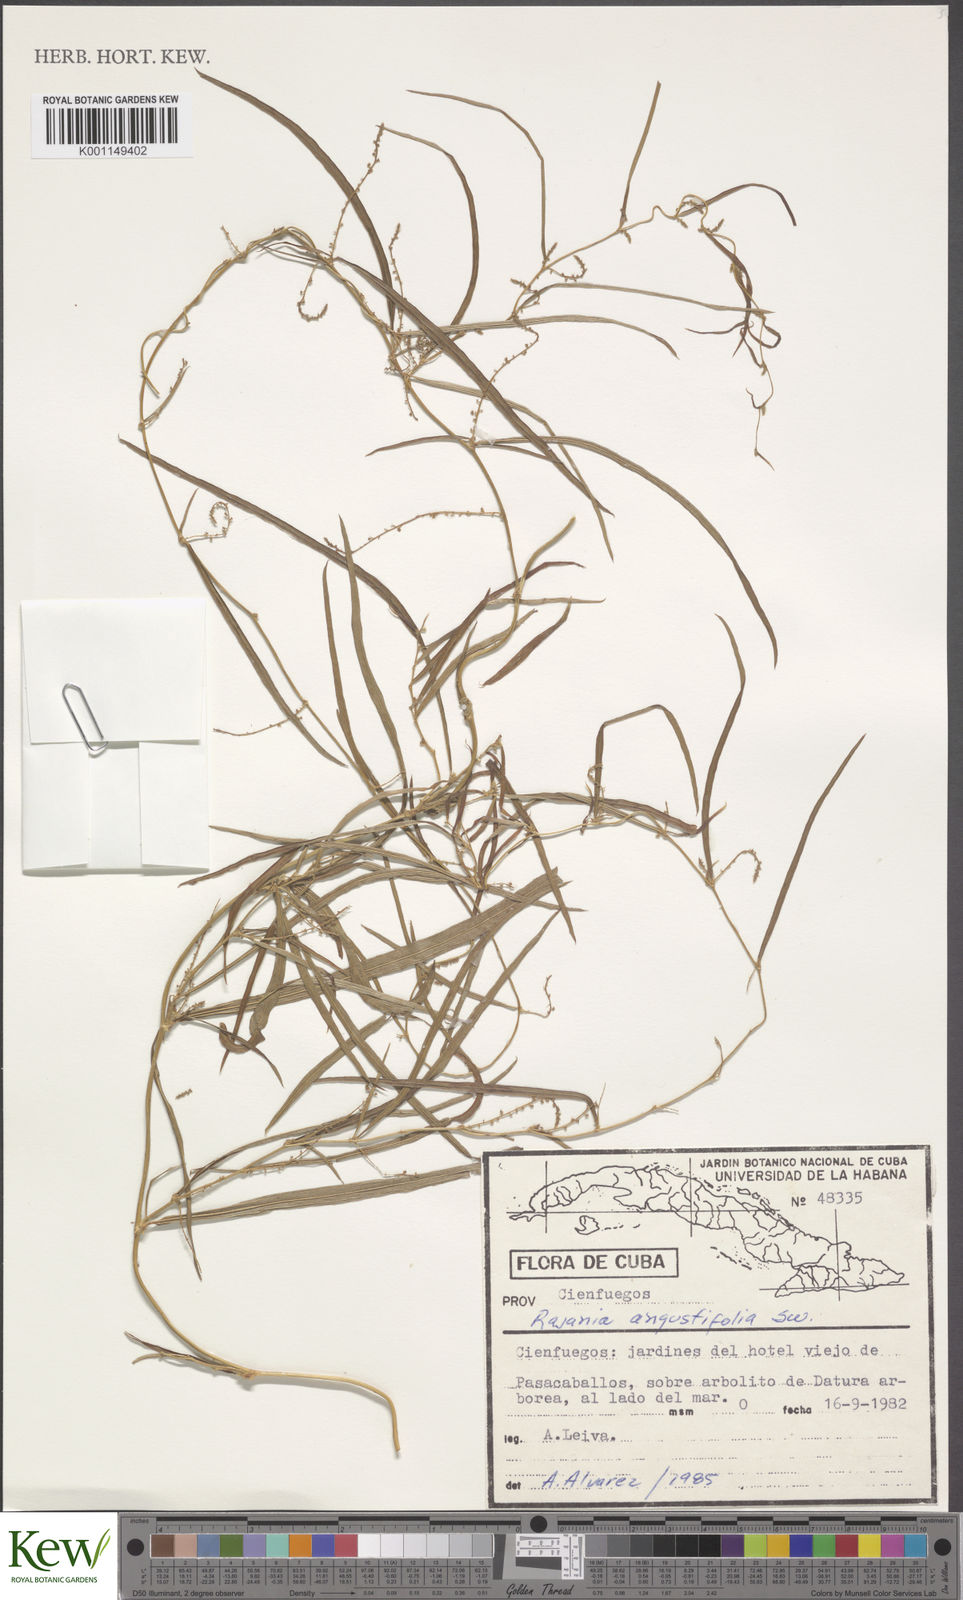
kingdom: Plantae
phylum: Tracheophyta
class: Liliopsida
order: Dioscoreales
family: Dioscoreaceae
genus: Dioscorea
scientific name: Dioscorea
